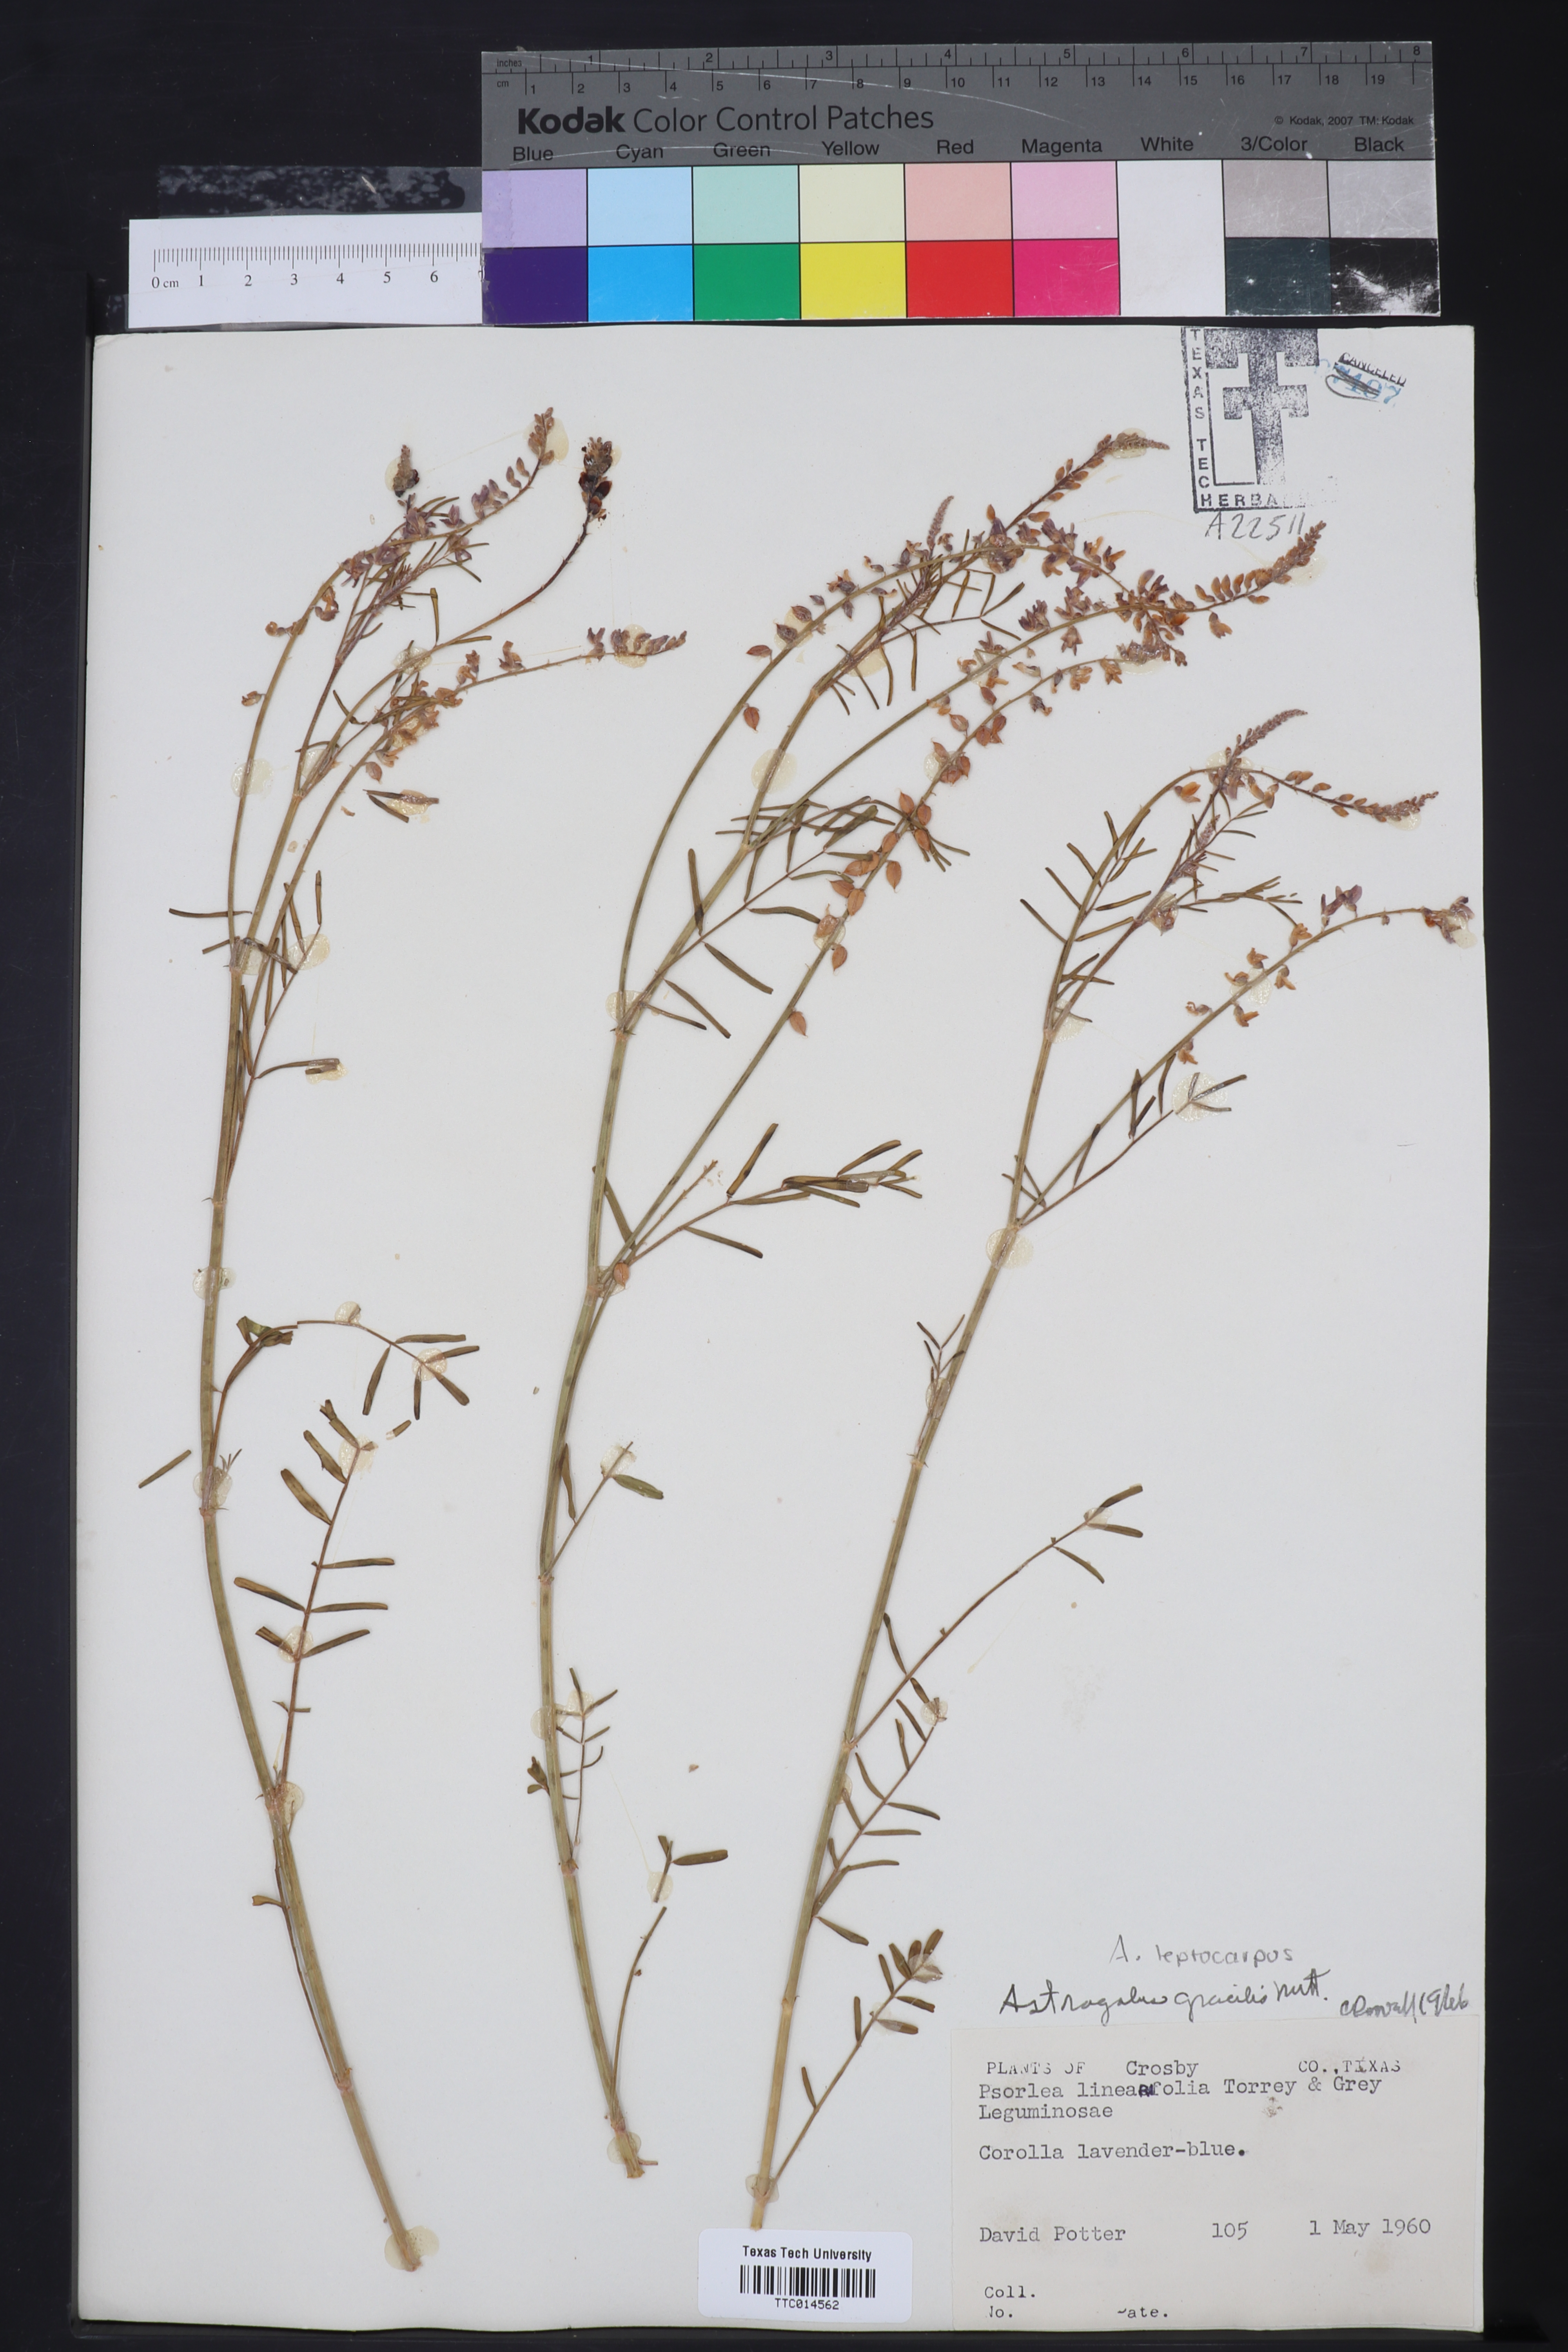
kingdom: Plantae
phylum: Tracheophyta
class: Magnoliopsida
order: Fabales
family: Fabaceae
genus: Astragalus
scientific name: Astragalus gracilis
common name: Slender milk-vetch
